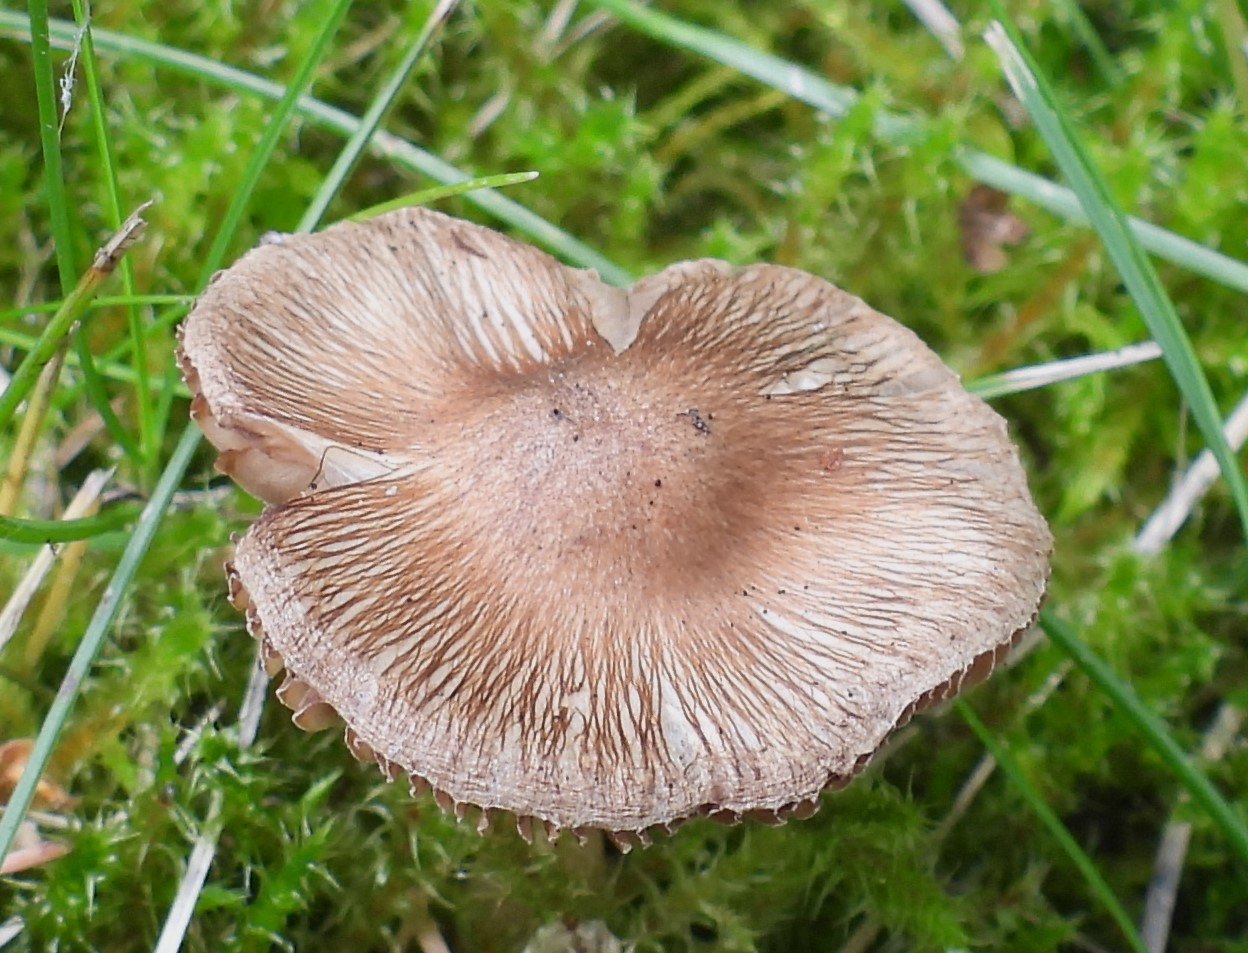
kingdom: Fungi
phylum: Basidiomycota
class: Agaricomycetes
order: Agaricales
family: Inocybaceae
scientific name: Inocybaceae
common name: trævlhatfamilien
